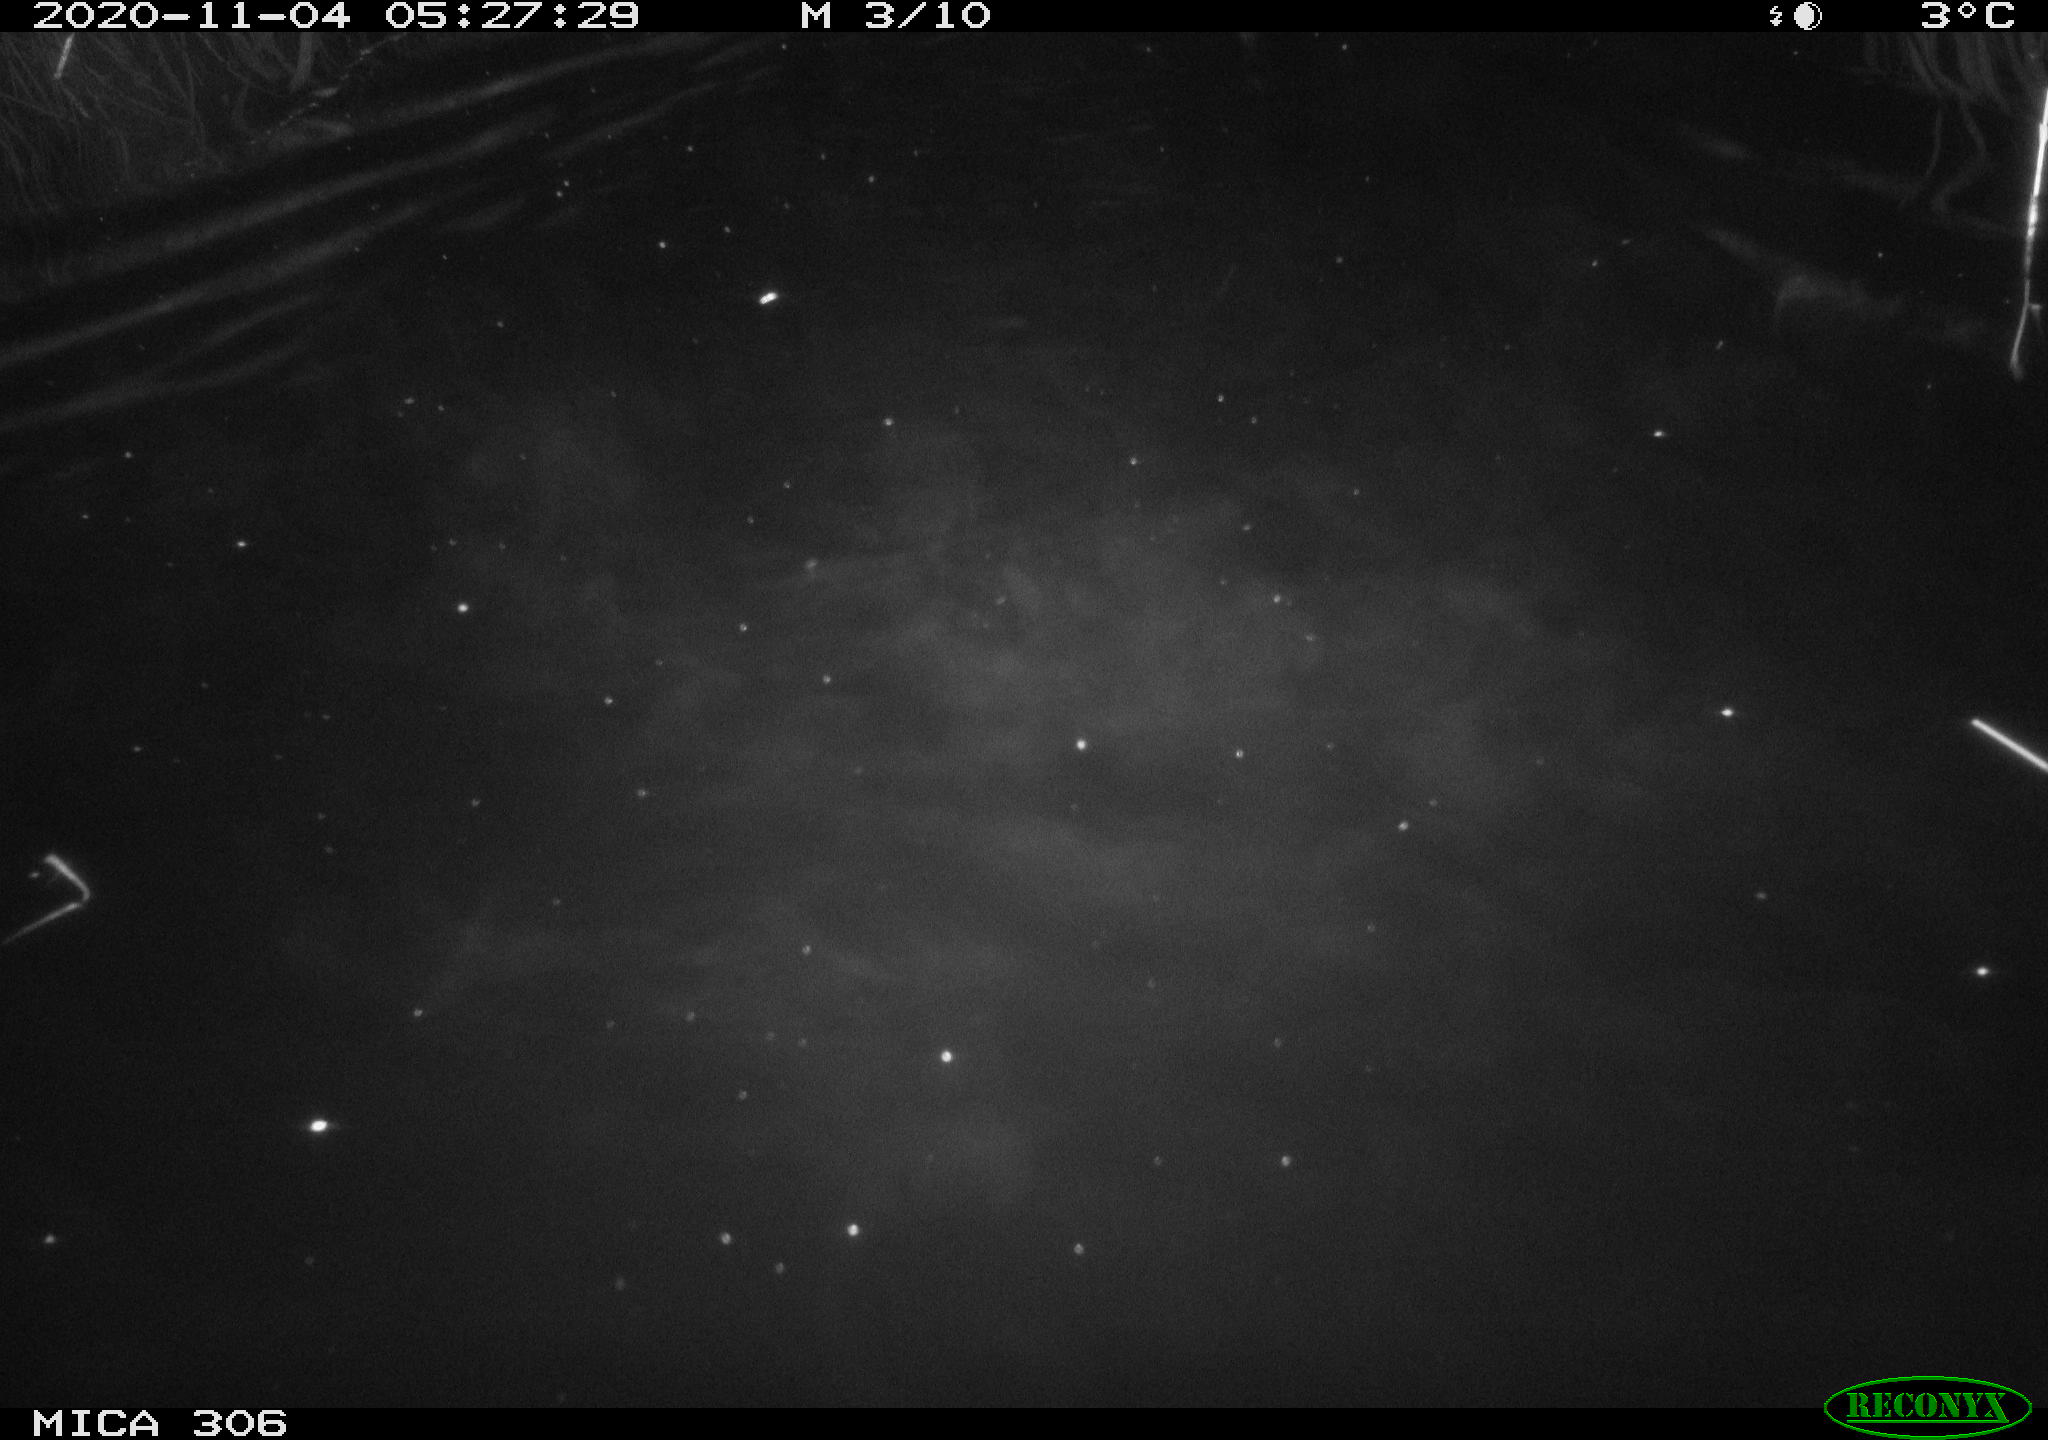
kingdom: Animalia
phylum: Chordata
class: Mammalia
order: Rodentia
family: Cricetidae
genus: Ondatra
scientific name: Ondatra zibethicus
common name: Muskrat
